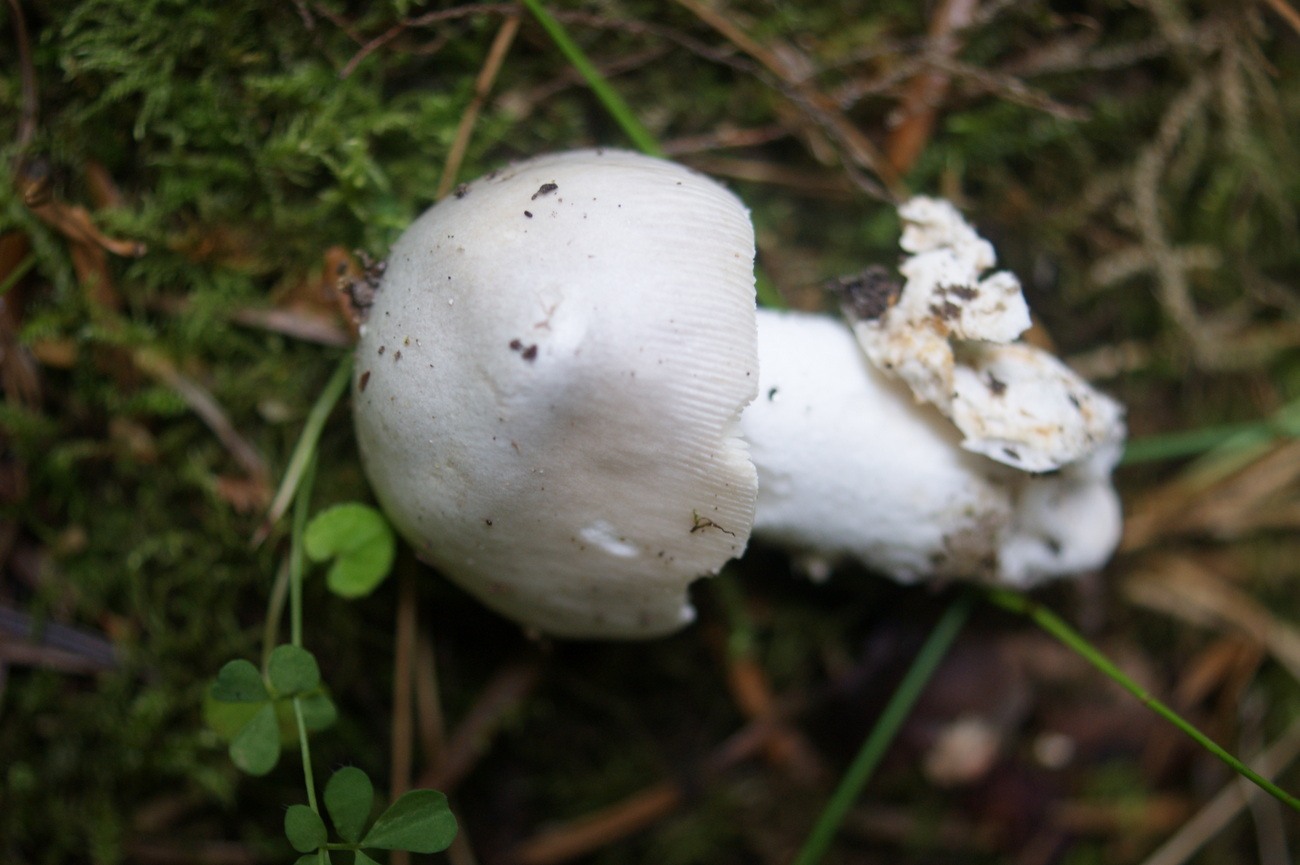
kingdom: Fungi
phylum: Basidiomycota
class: Agaricomycetes
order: Agaricales
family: Amanitaceae
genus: Amanita
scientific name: Amanita vaginata
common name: grå kam-fluesvamp
